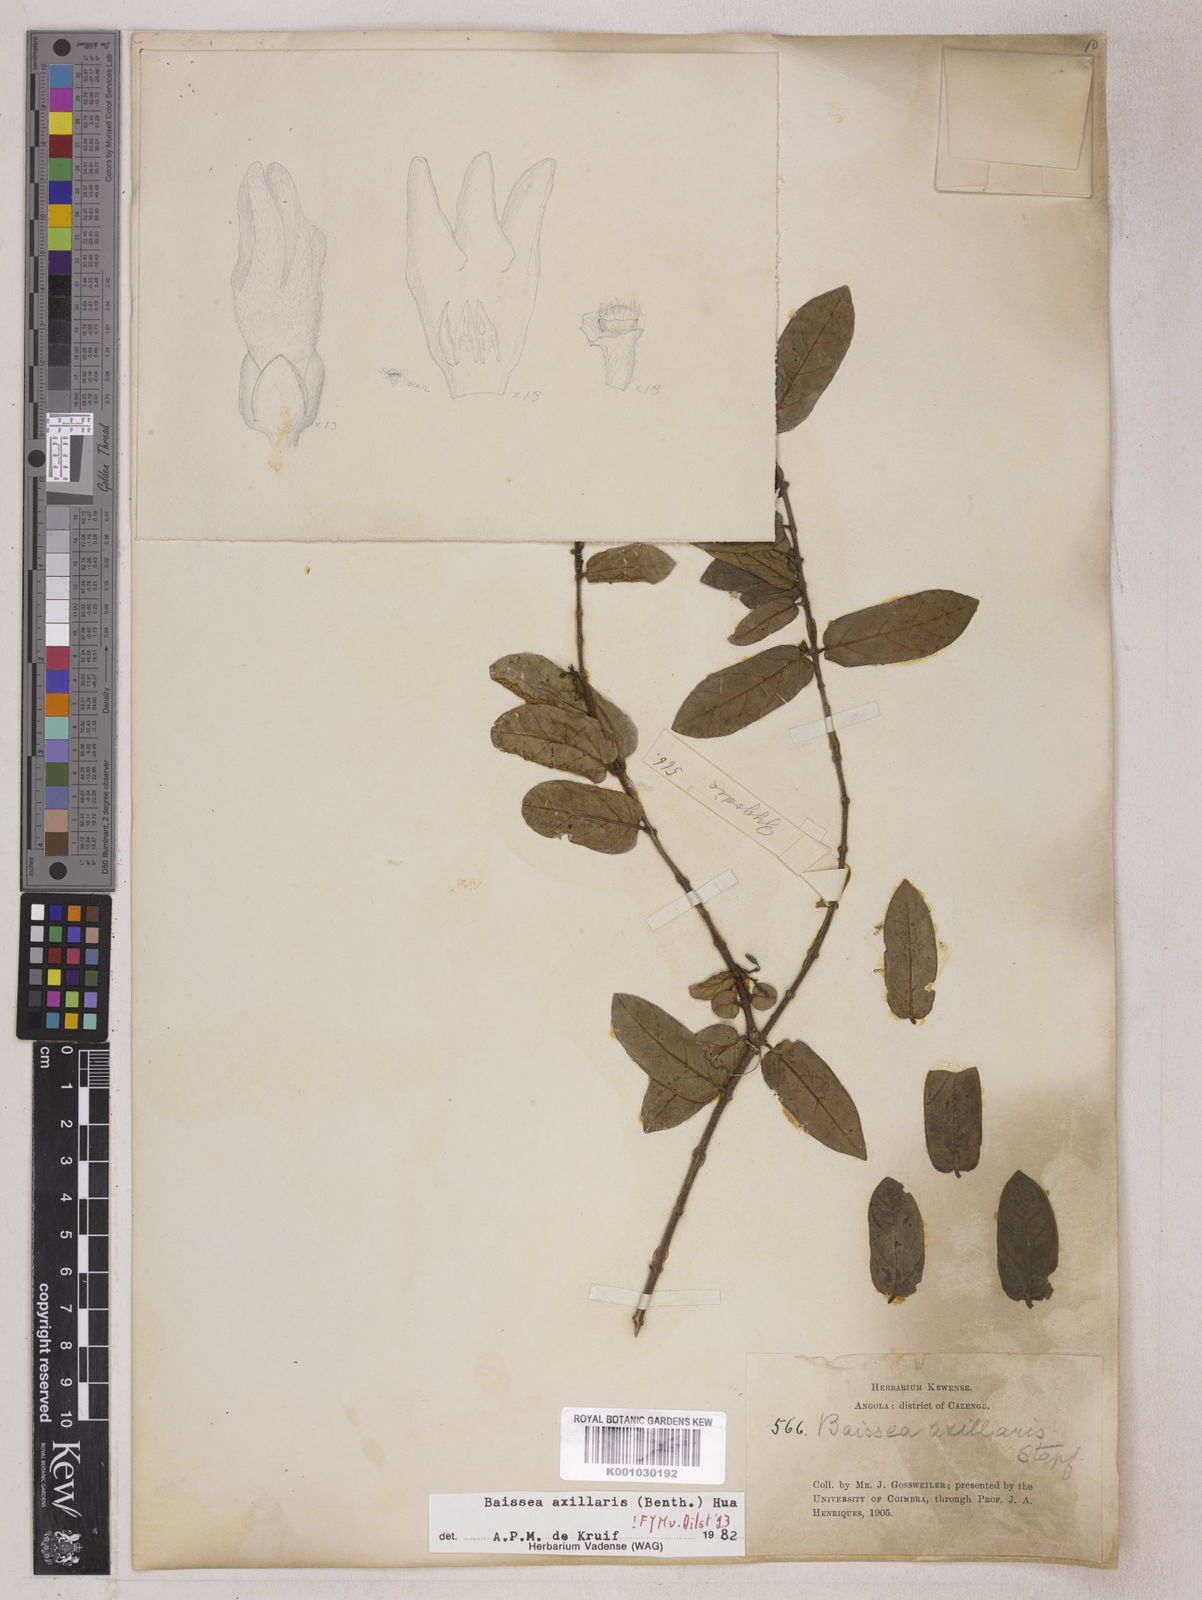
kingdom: Plantae
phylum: Tracheophyta
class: Magnoliopsida
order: Gentianales
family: Apocynaceae
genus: Baissea
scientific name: Baissea axillaris
